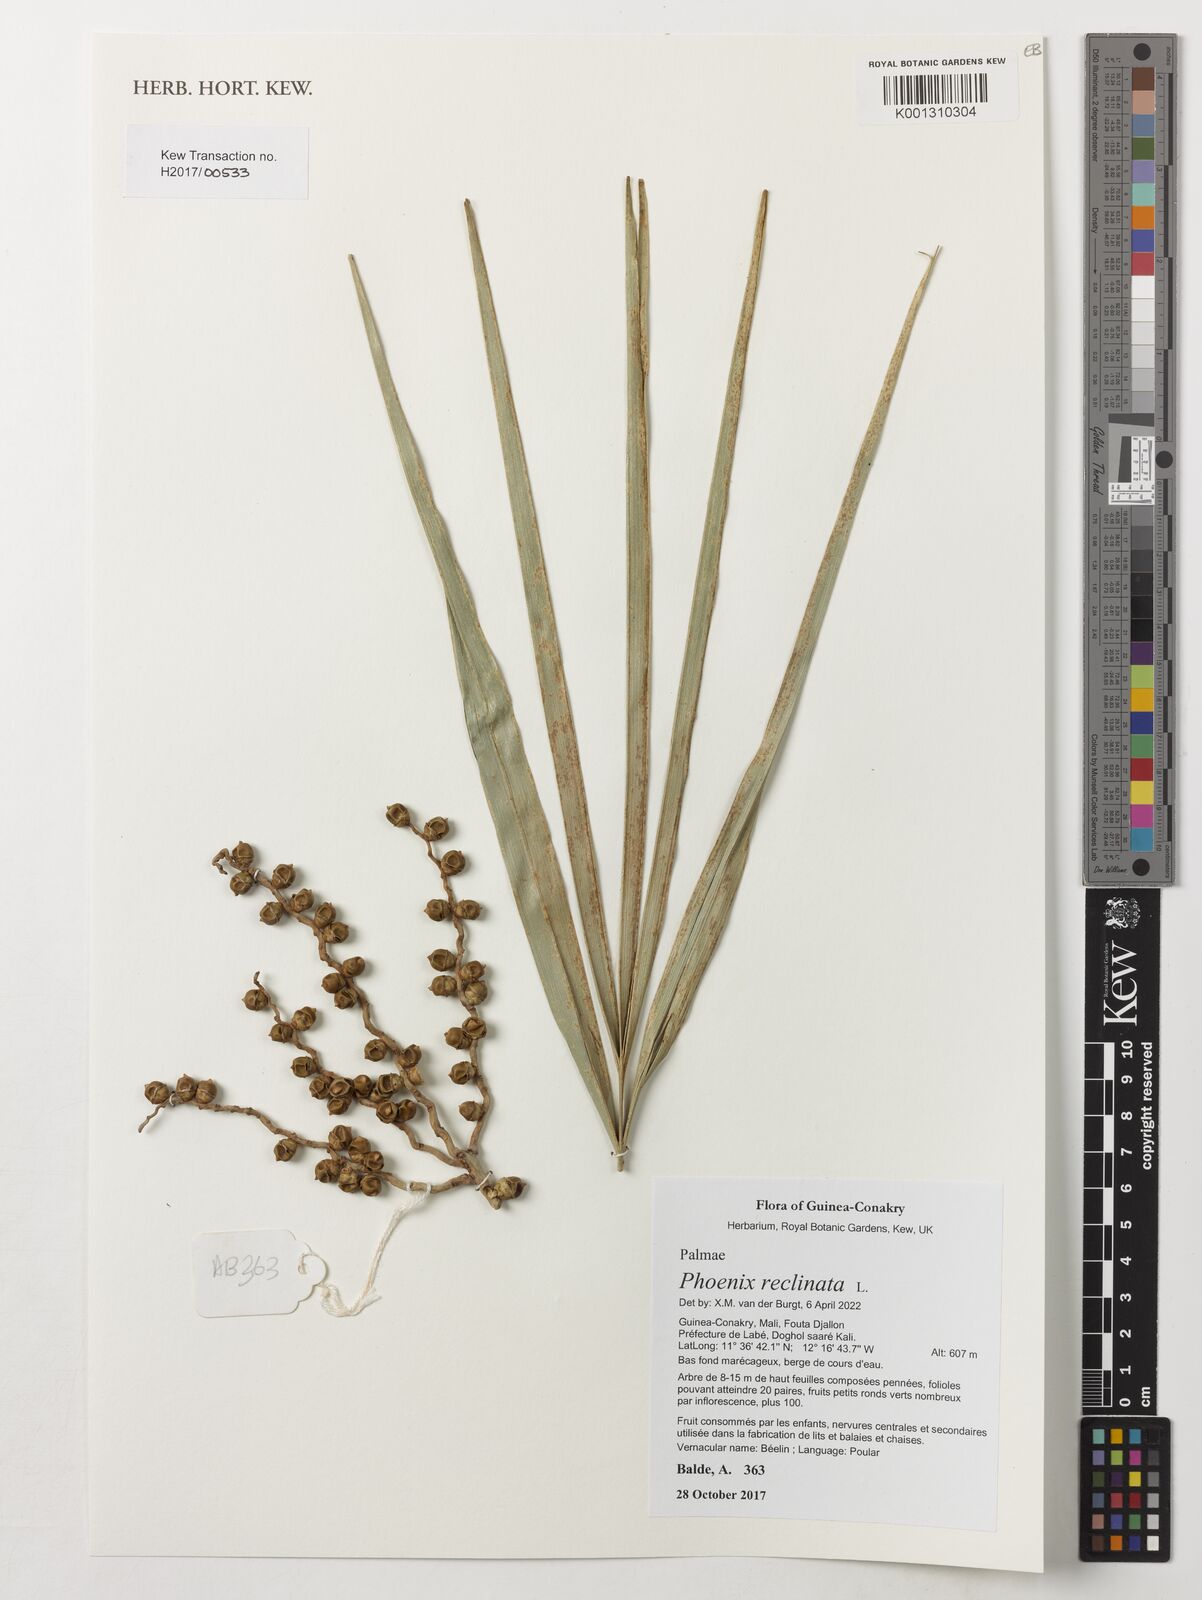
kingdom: Plantae
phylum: Tracheophyta
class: Liliopsida
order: Arecales
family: Arecaceae
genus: Phoenix
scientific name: Phoenix reclinata
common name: Senegal date palm
